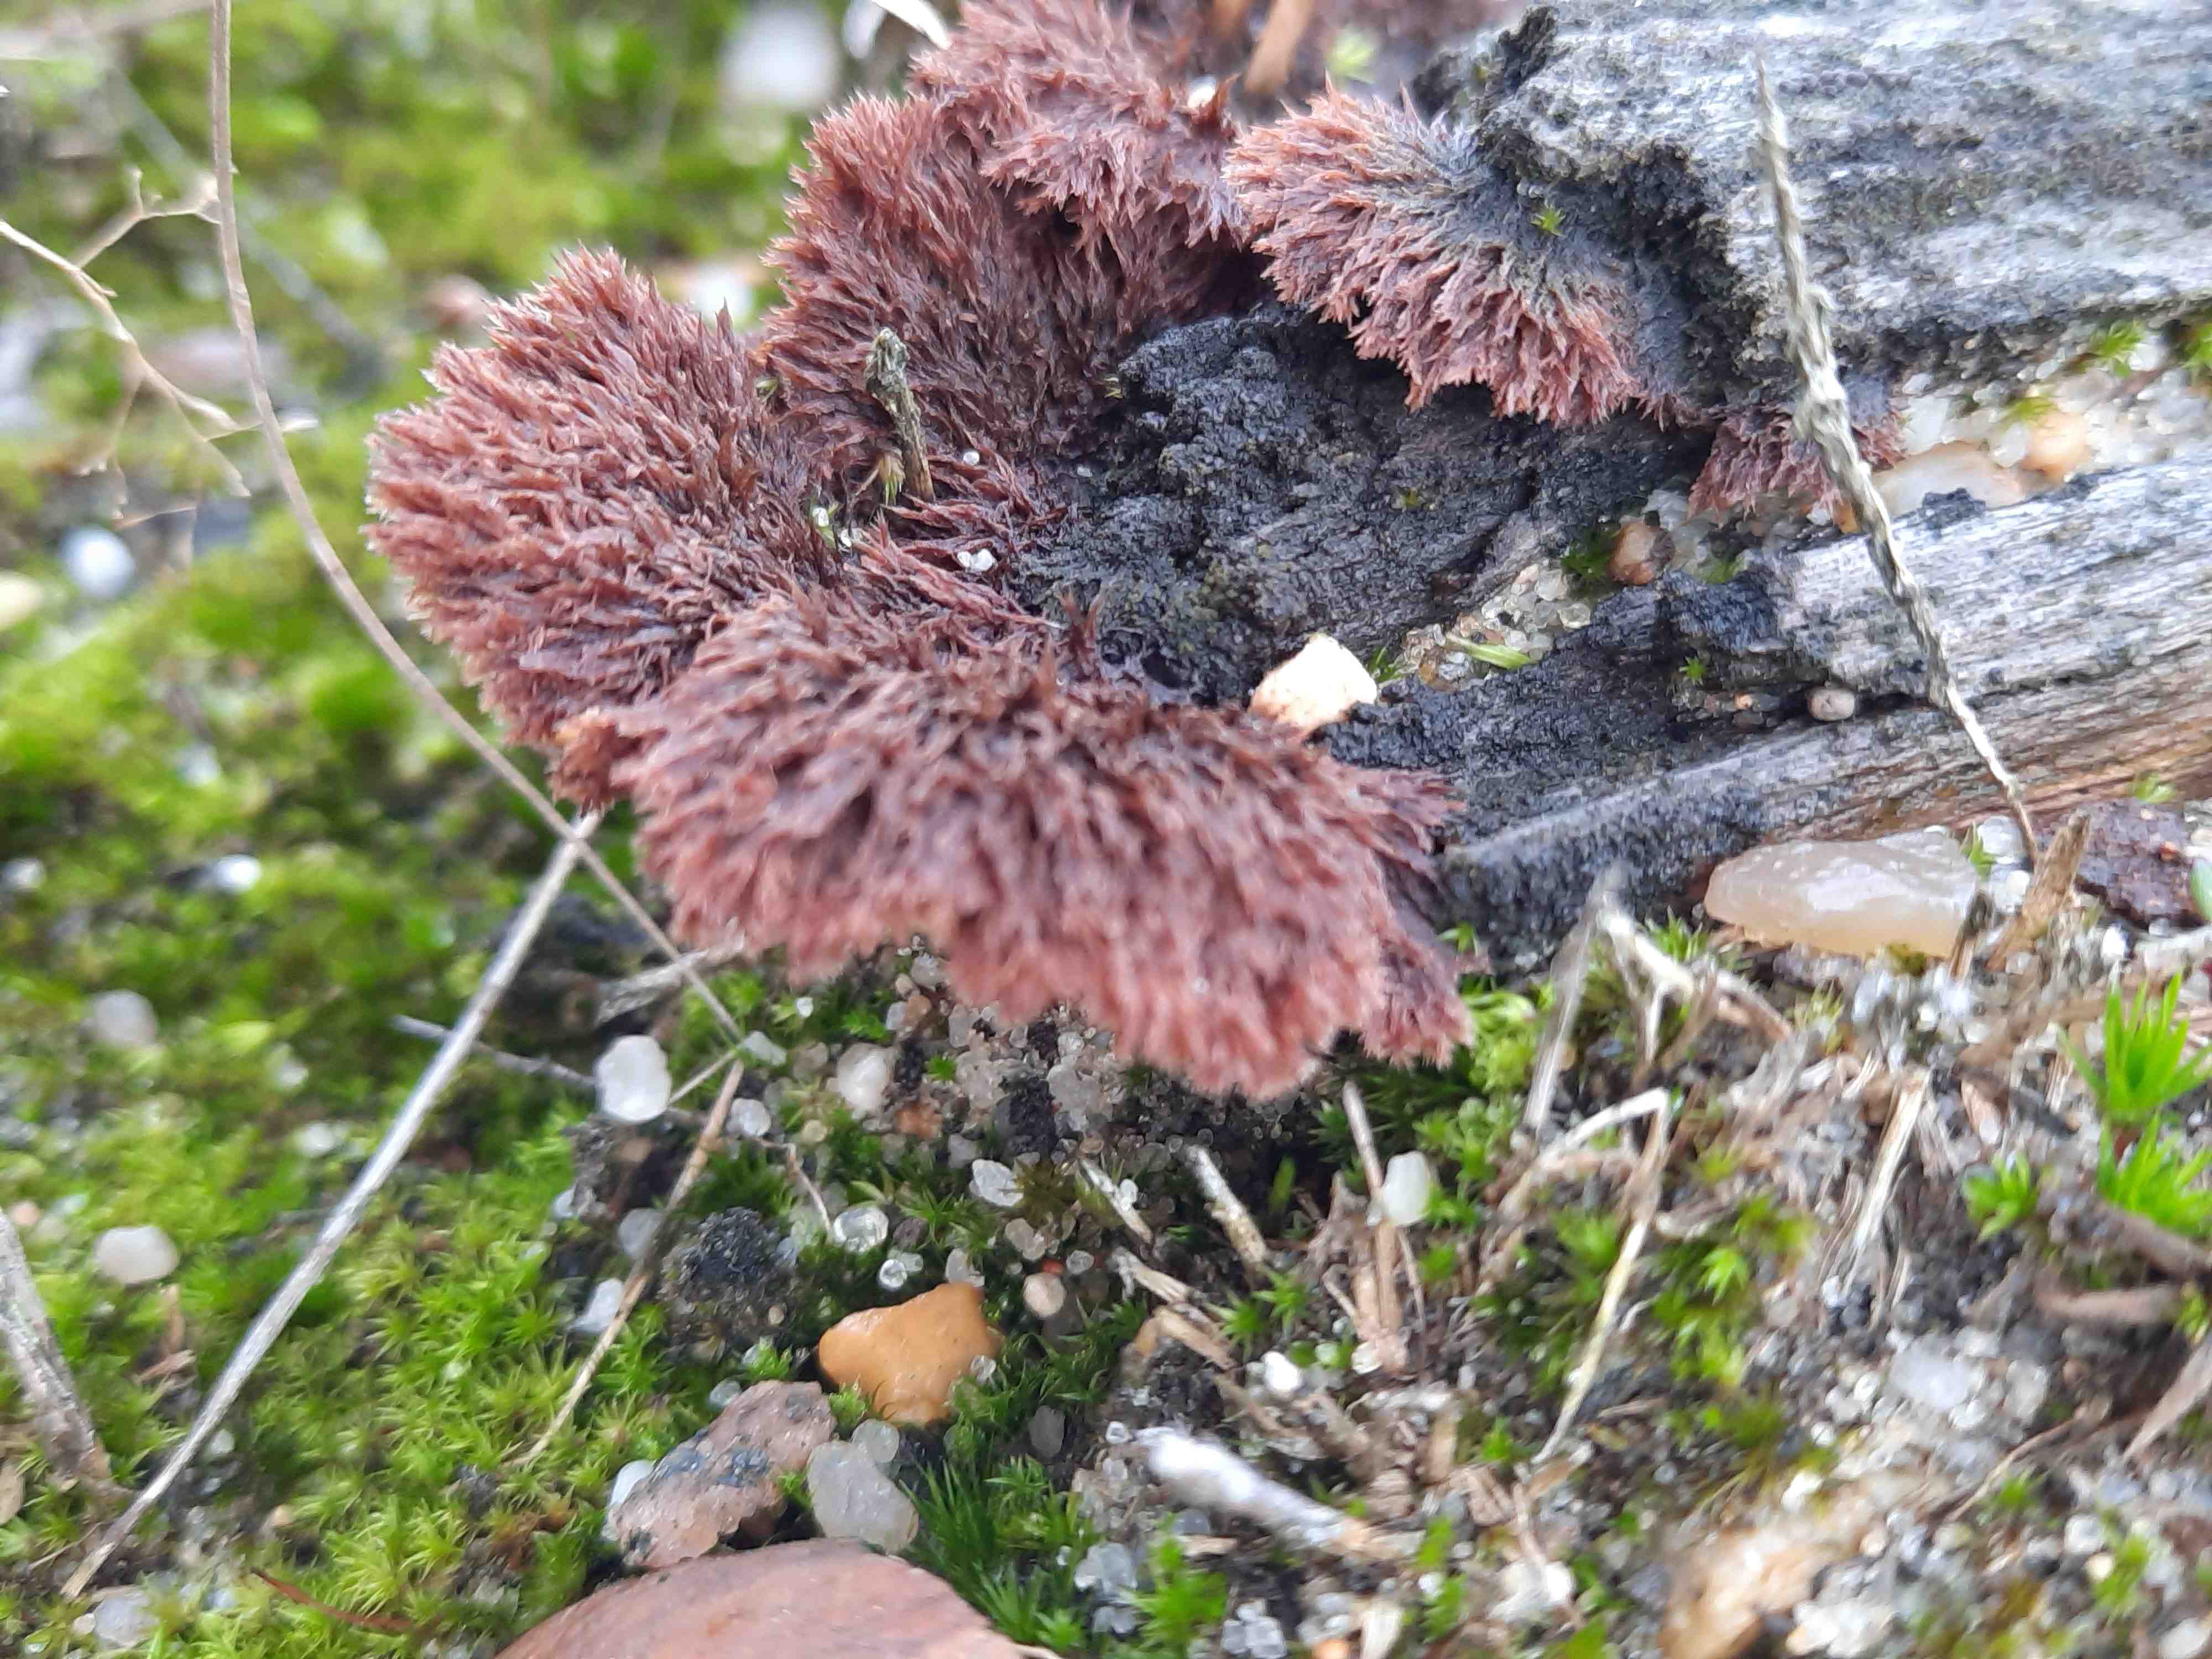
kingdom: Fungi
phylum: Basidiomycota
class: Agaricomycetes
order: Thelephorales
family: Thelephoraceae
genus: Thelephora
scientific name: Thelephora terrestris
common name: fliget frynsesvamp
